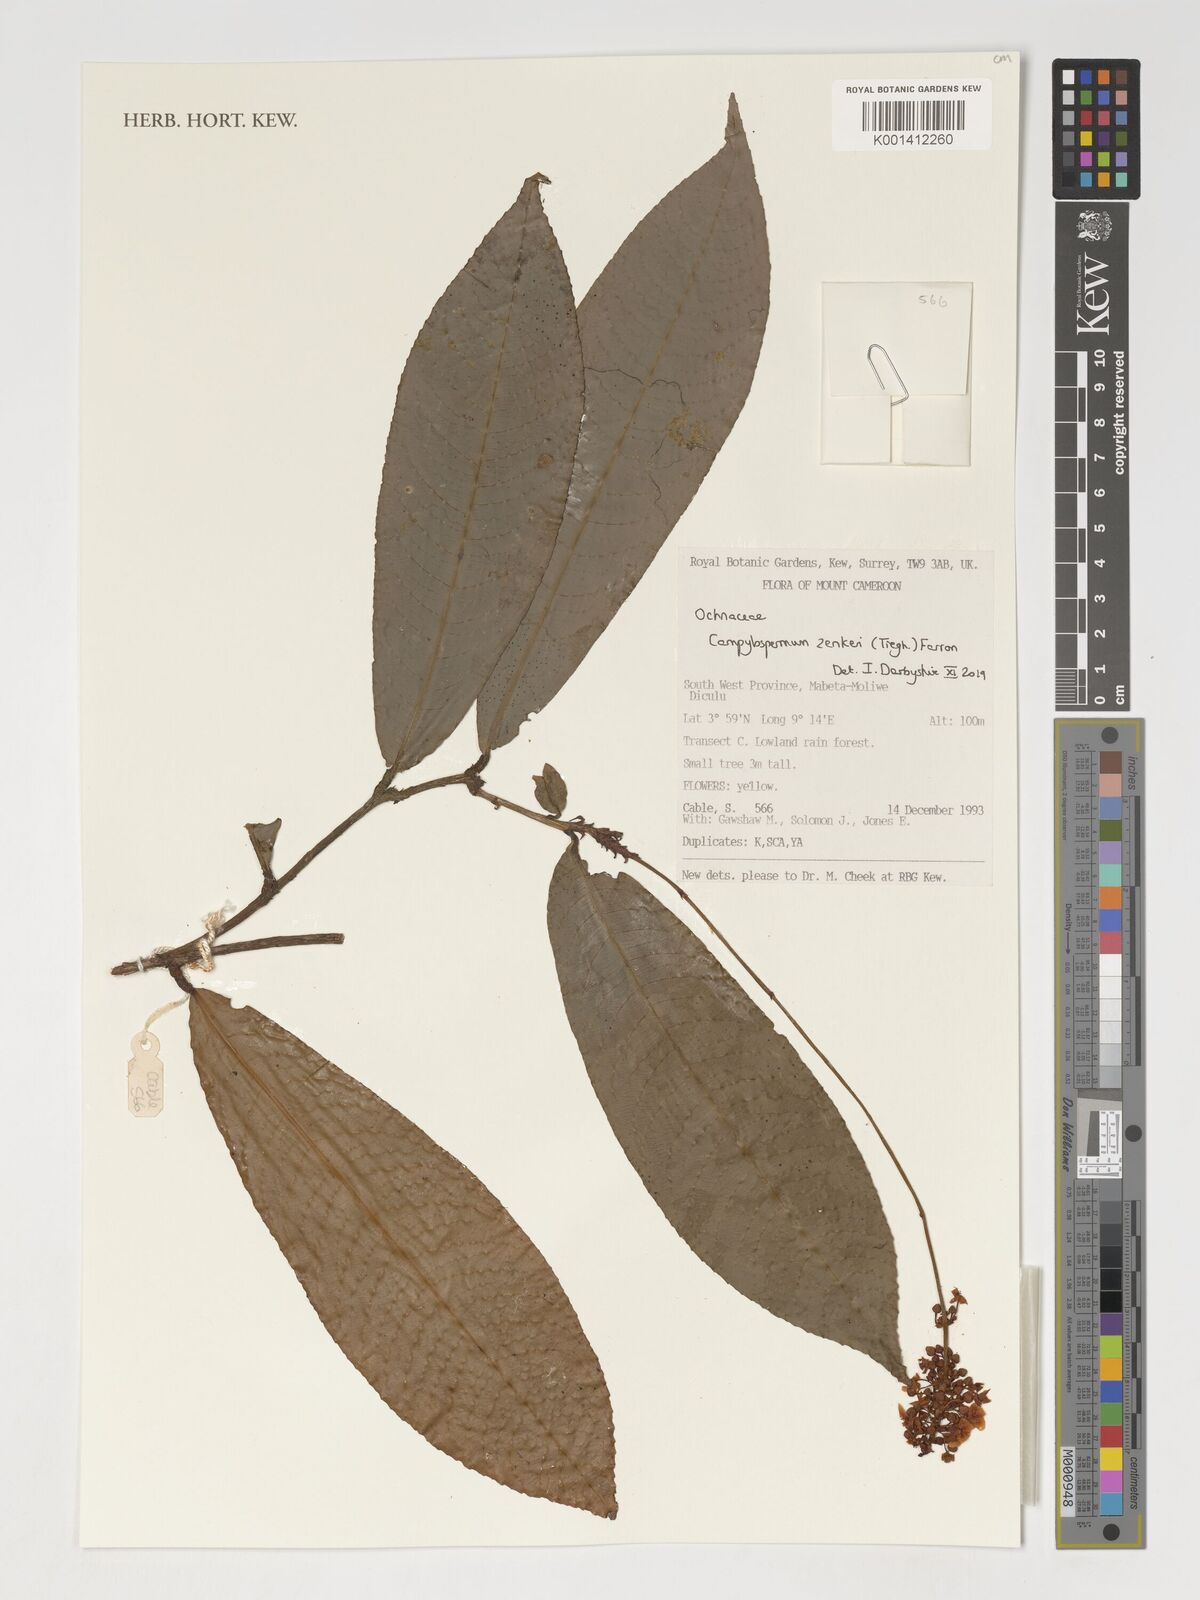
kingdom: Plantae
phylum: Tracheophyta
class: Magnoliopsida
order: Malpighiales
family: Ochnaceae
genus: Campylospermum
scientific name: Campylospermum zenkeri
